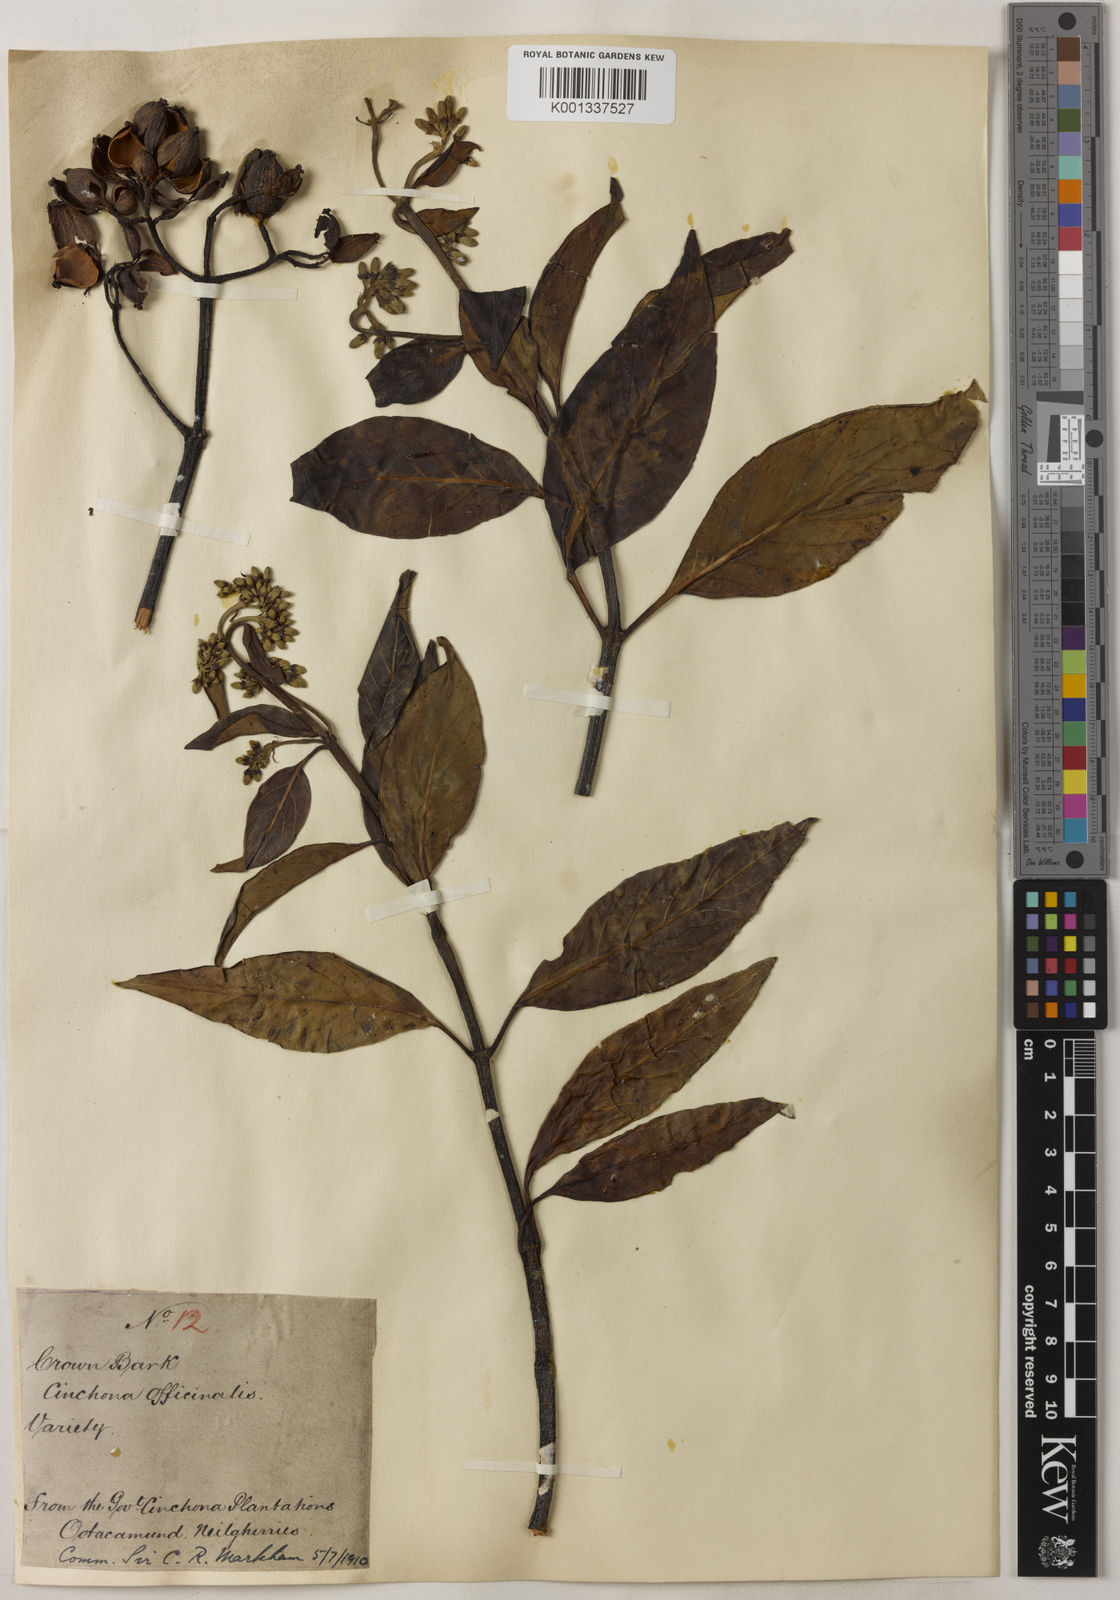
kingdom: Plantae
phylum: Tracheophyta
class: Magnoliopsida
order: Gentianales
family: Rubiaceae
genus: Cinchona
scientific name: Cinchona officinalis
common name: Lojabark
